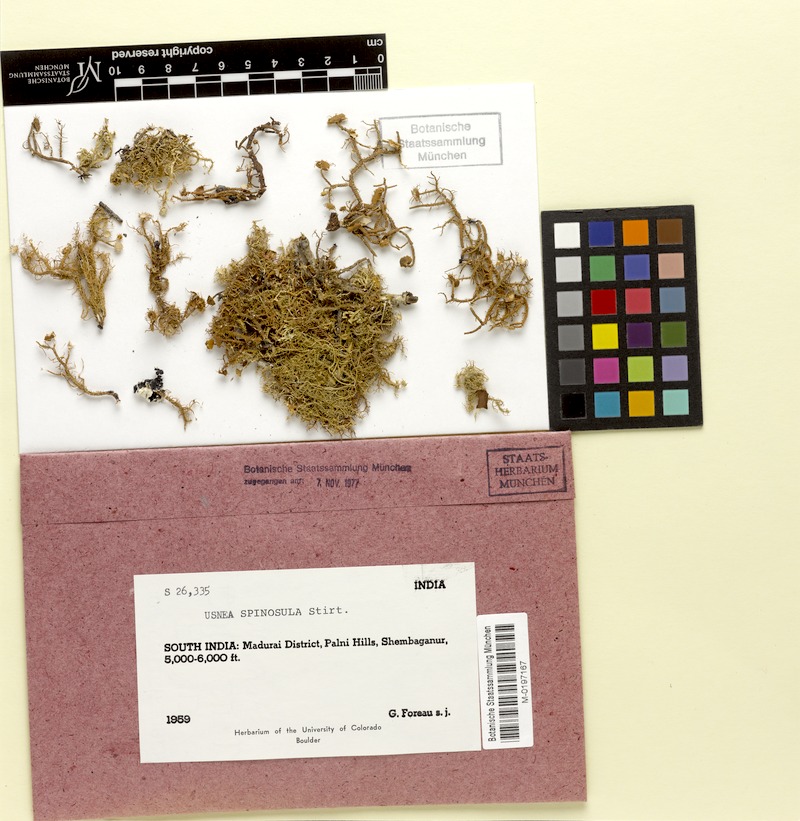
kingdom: Fungi
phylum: Ascomycota
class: Lecanoromycetes
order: Lecanorales
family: Parmeliaceae
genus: Usnea
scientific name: Usnea
